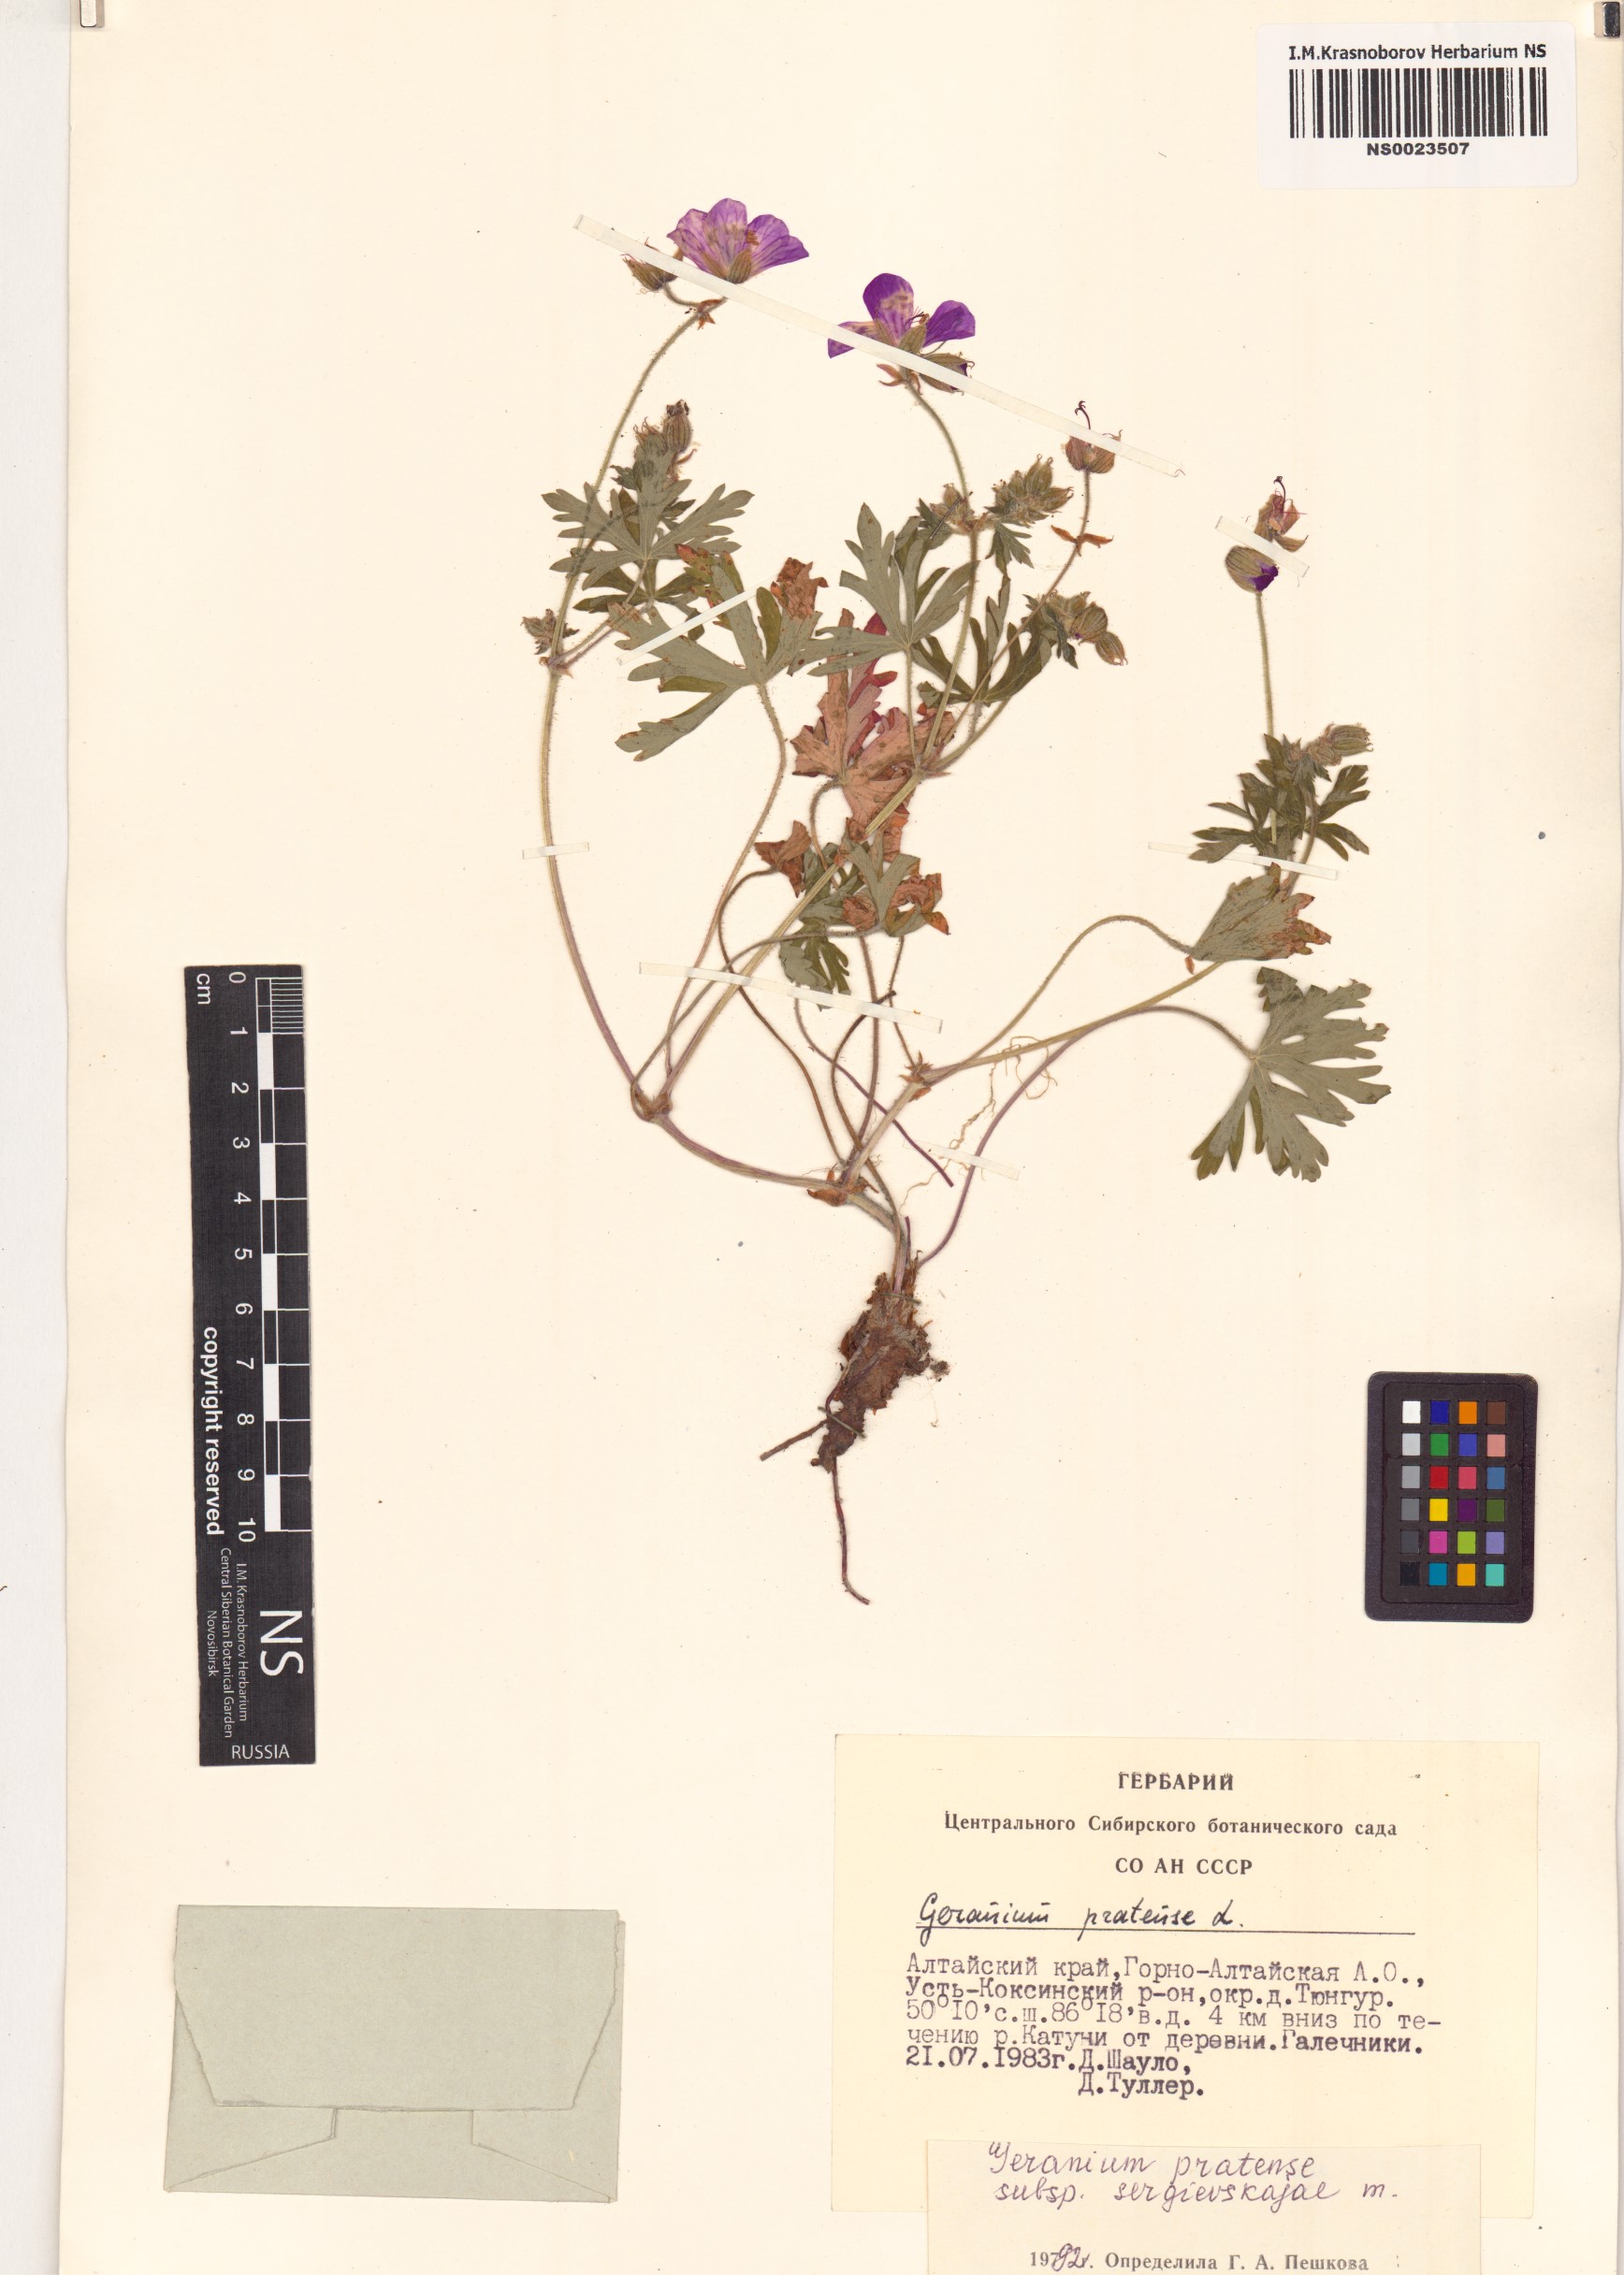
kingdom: Plantae
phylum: Tracheophyta
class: Magnoliopsida
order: Geraniales
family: Geraniaceae
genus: Geranium
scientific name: Geranium pratense
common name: Meadow crane's-bill
